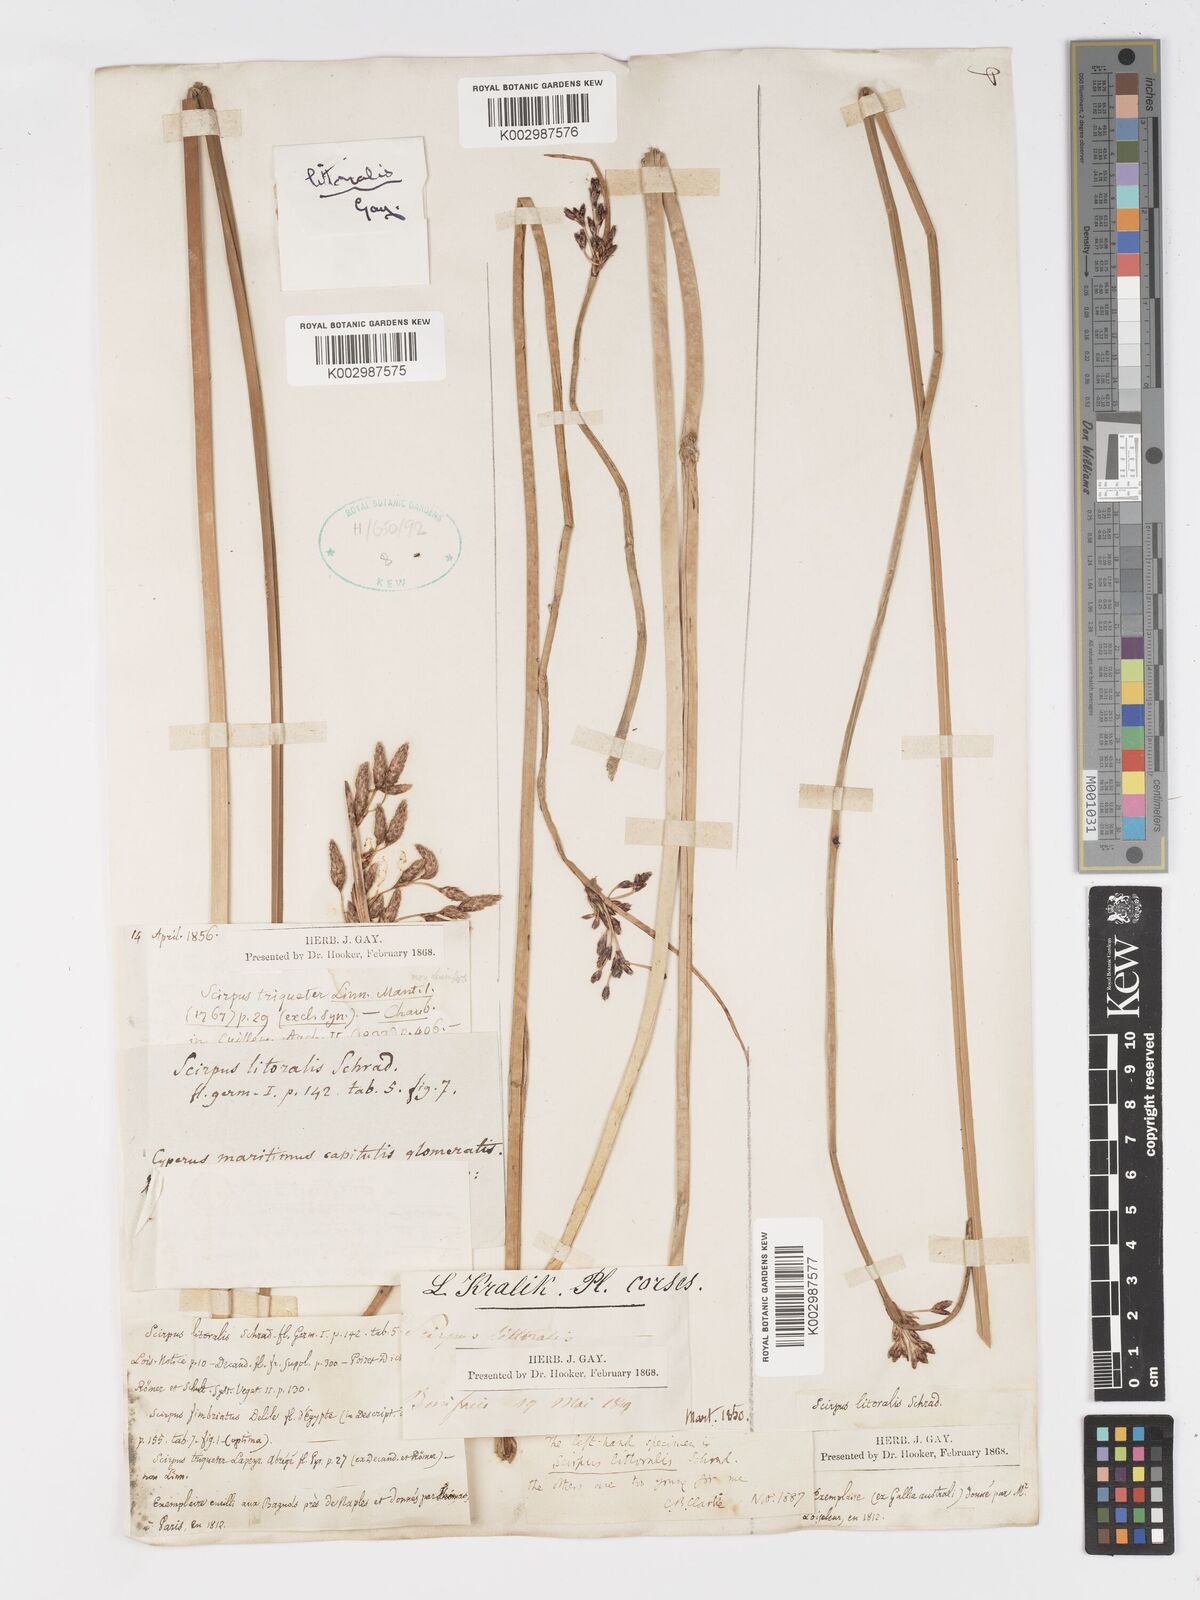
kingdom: Plantae
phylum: Tracheophyta
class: Liliopsida
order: Poales
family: Cyperaceae
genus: Schoenoplectus
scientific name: Schoenoplectus litoralis
